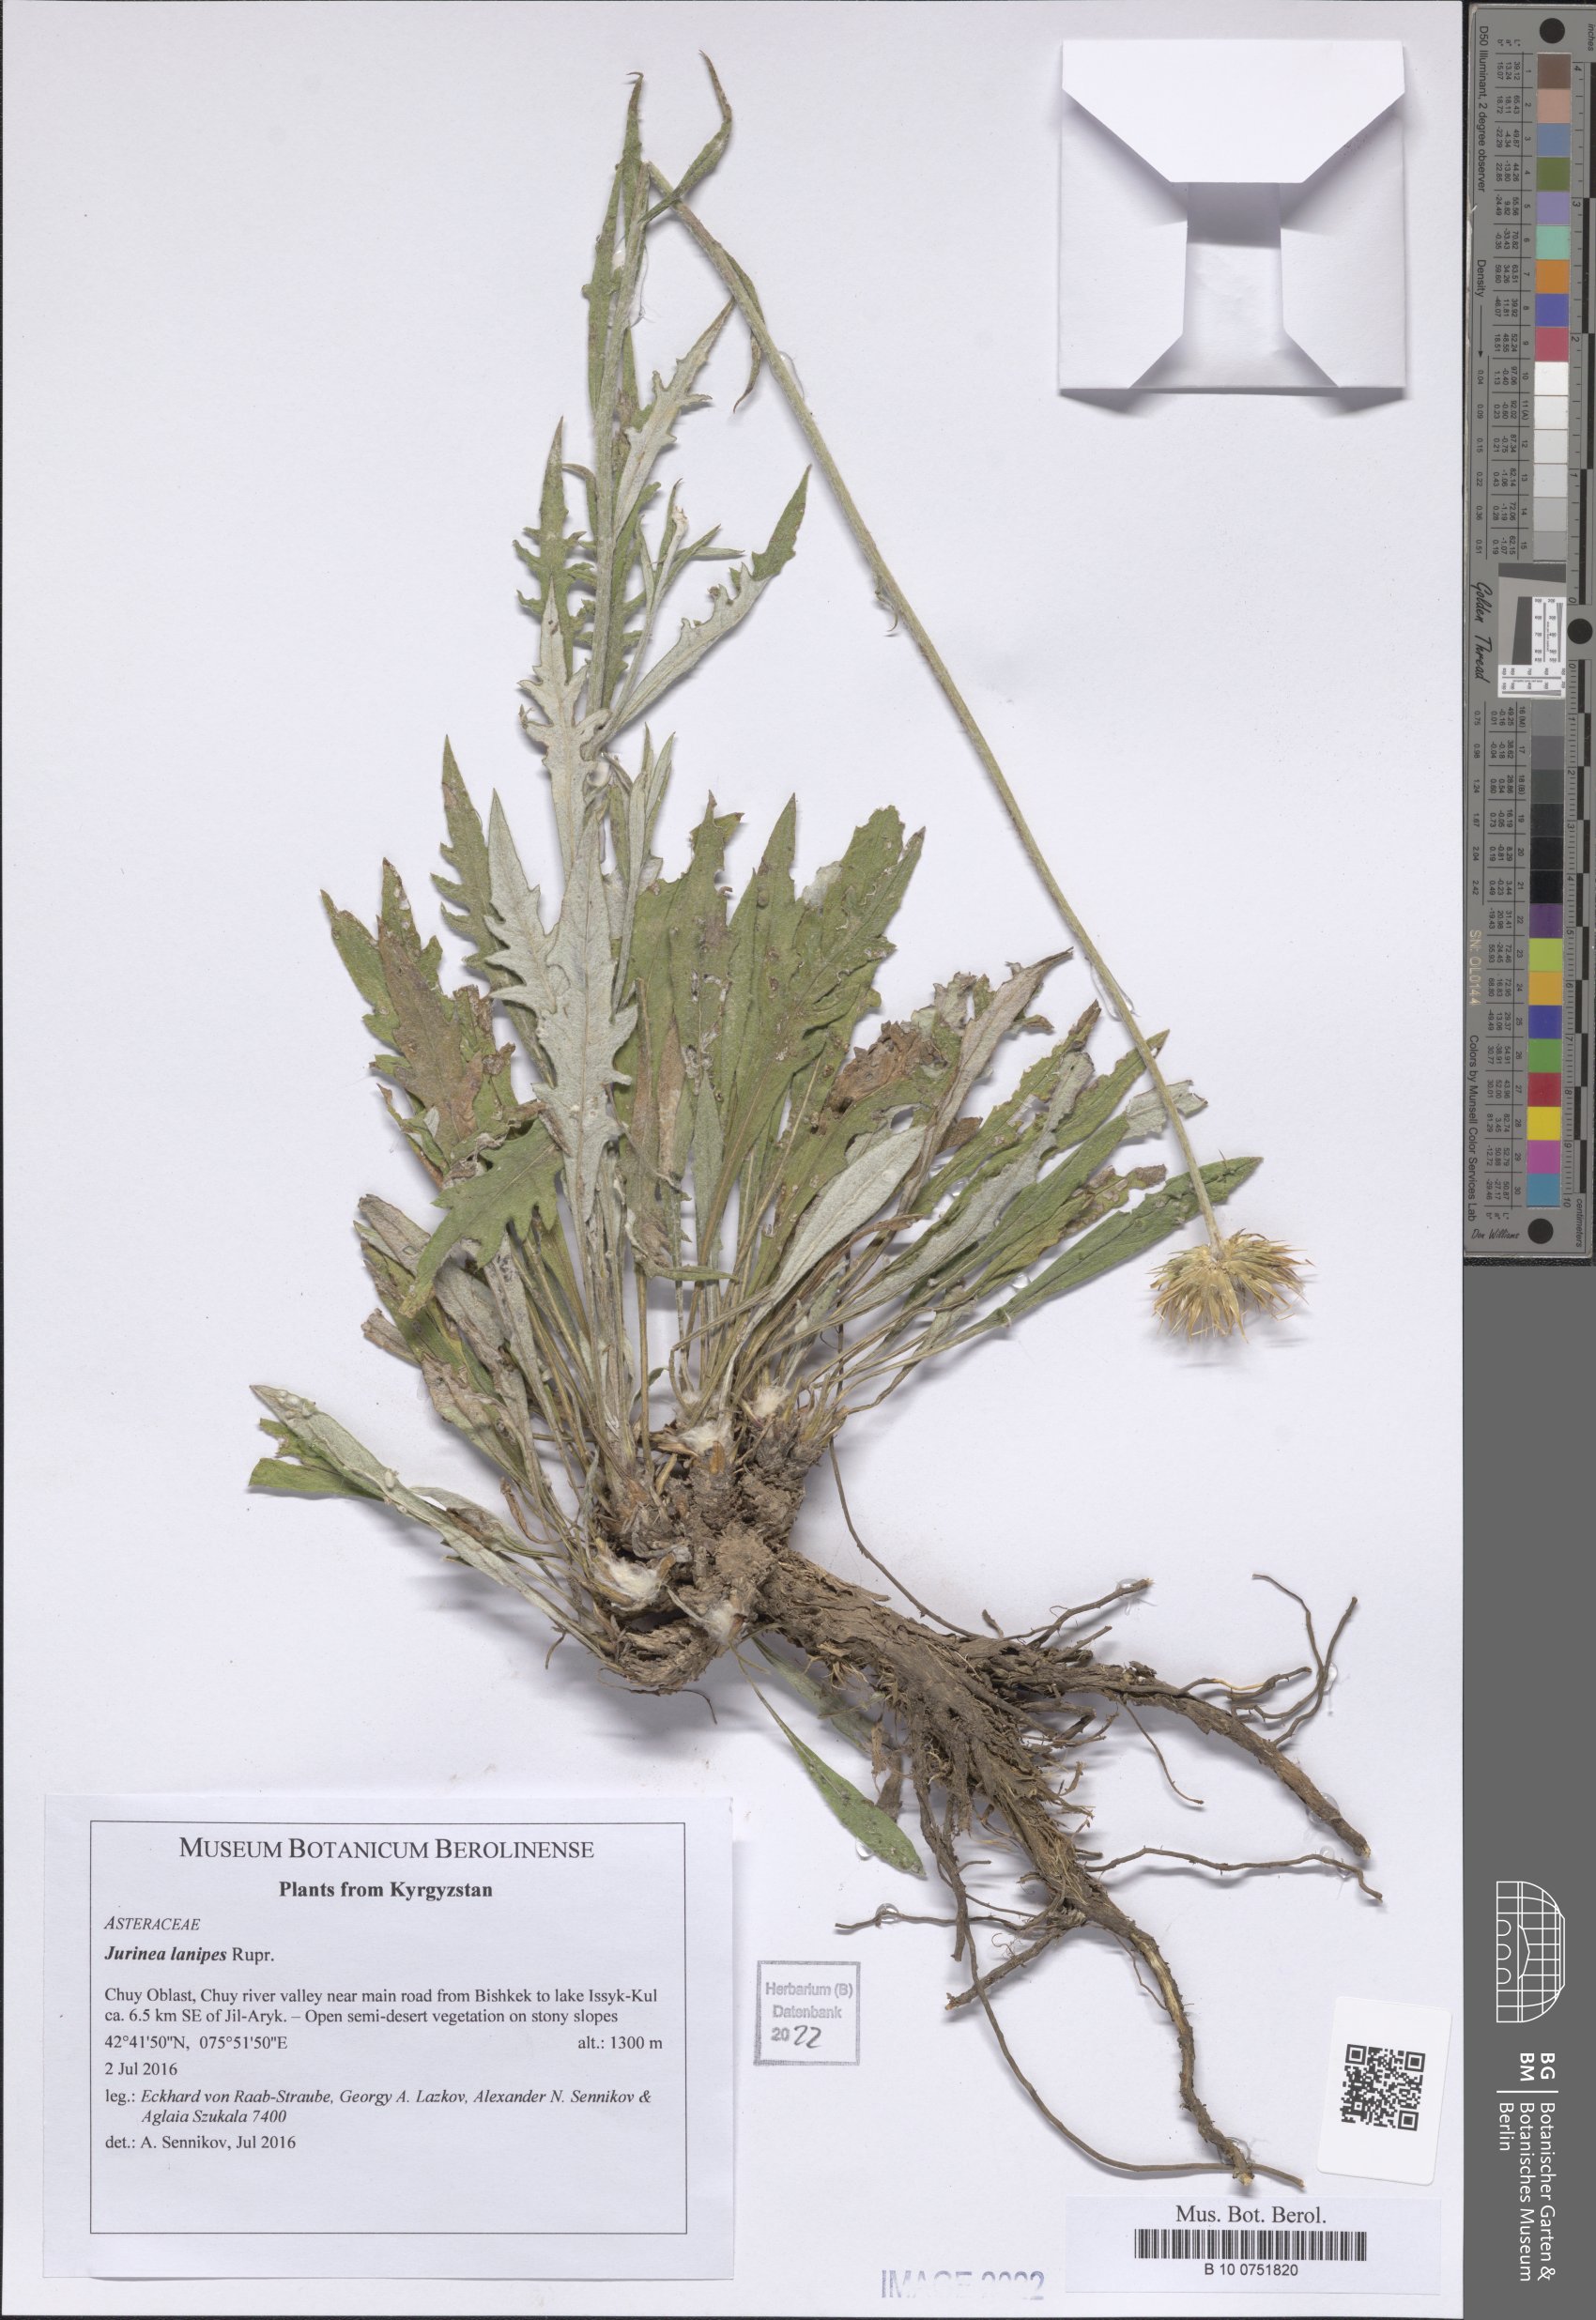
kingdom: Plantae
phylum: Tracheophyta
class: Magnoliopsida
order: Asterales
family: Asteraceae
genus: Jurinea
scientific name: Jurinea lanipes
